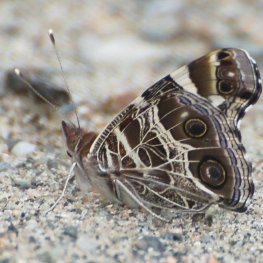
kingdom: Animalia
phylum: Arthropoda
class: Insecta
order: Lepidoptera
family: Nymphalidae
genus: Vanessa
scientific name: Vanessa virginiensis
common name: American Lady
